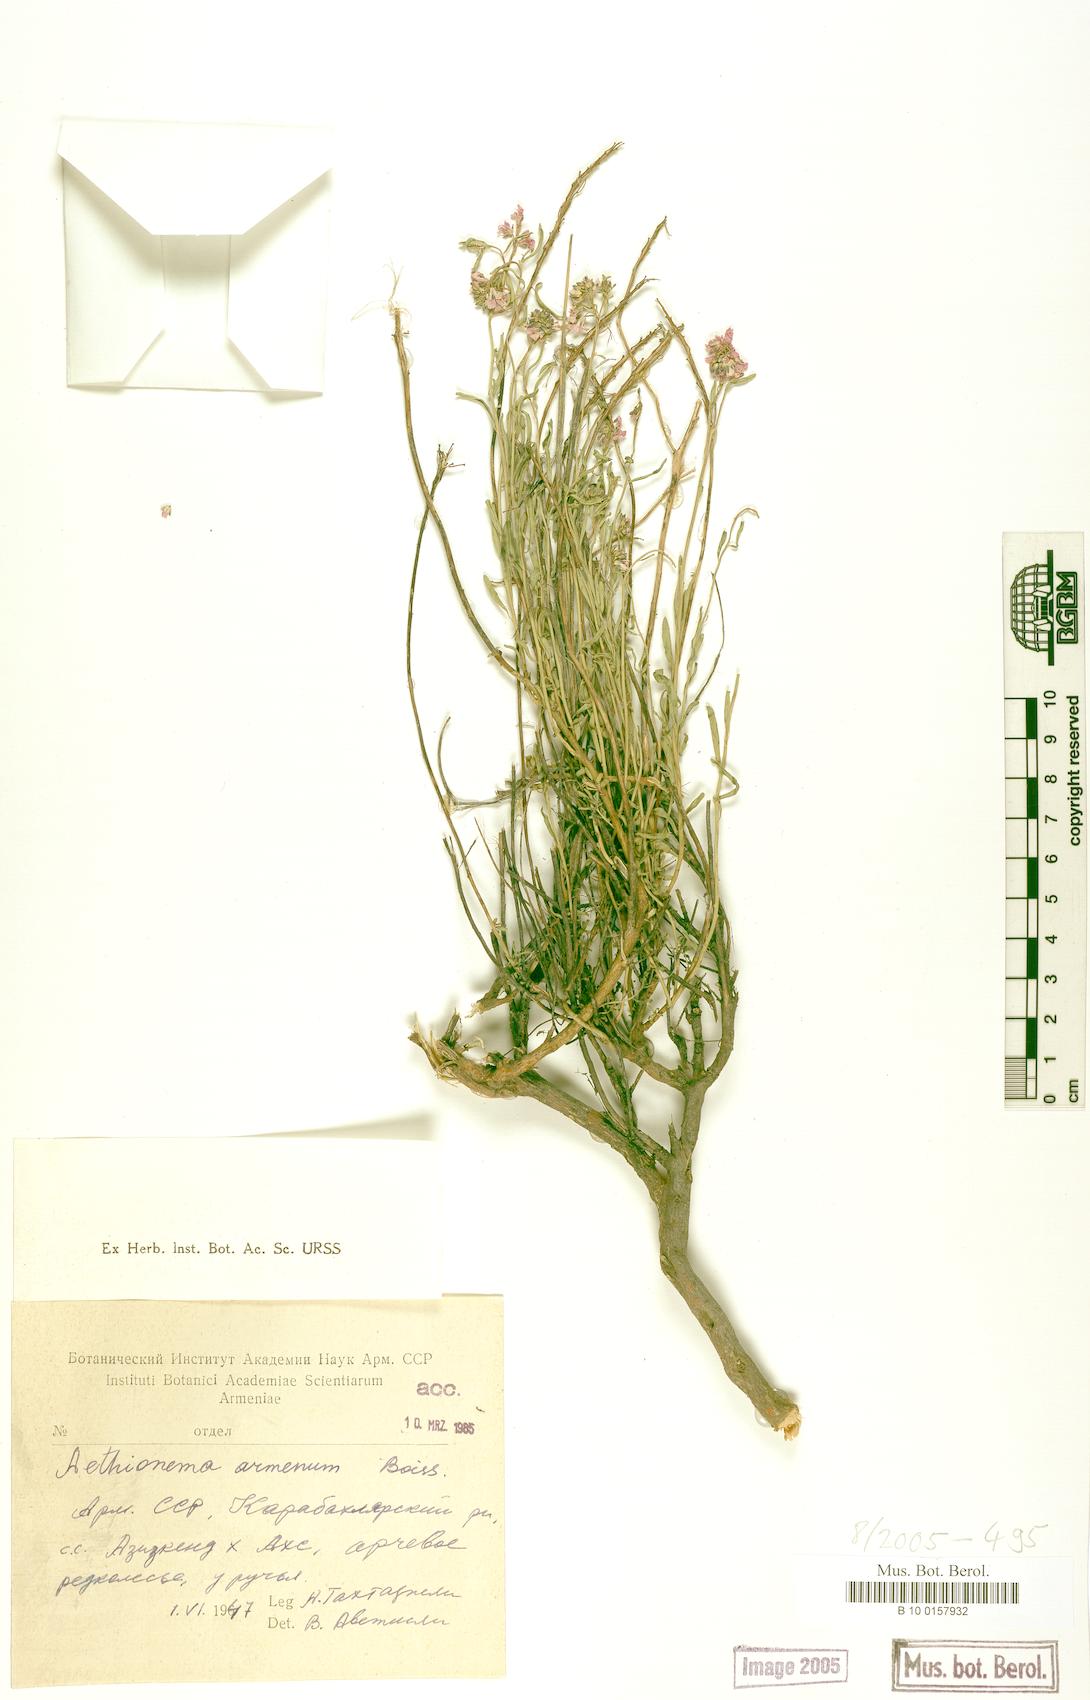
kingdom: Plantae
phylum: Tracheophyta
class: Magnoliopsida
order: Brassicales
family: Brassicaceae
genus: Aethionema
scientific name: Aethionema armenum
